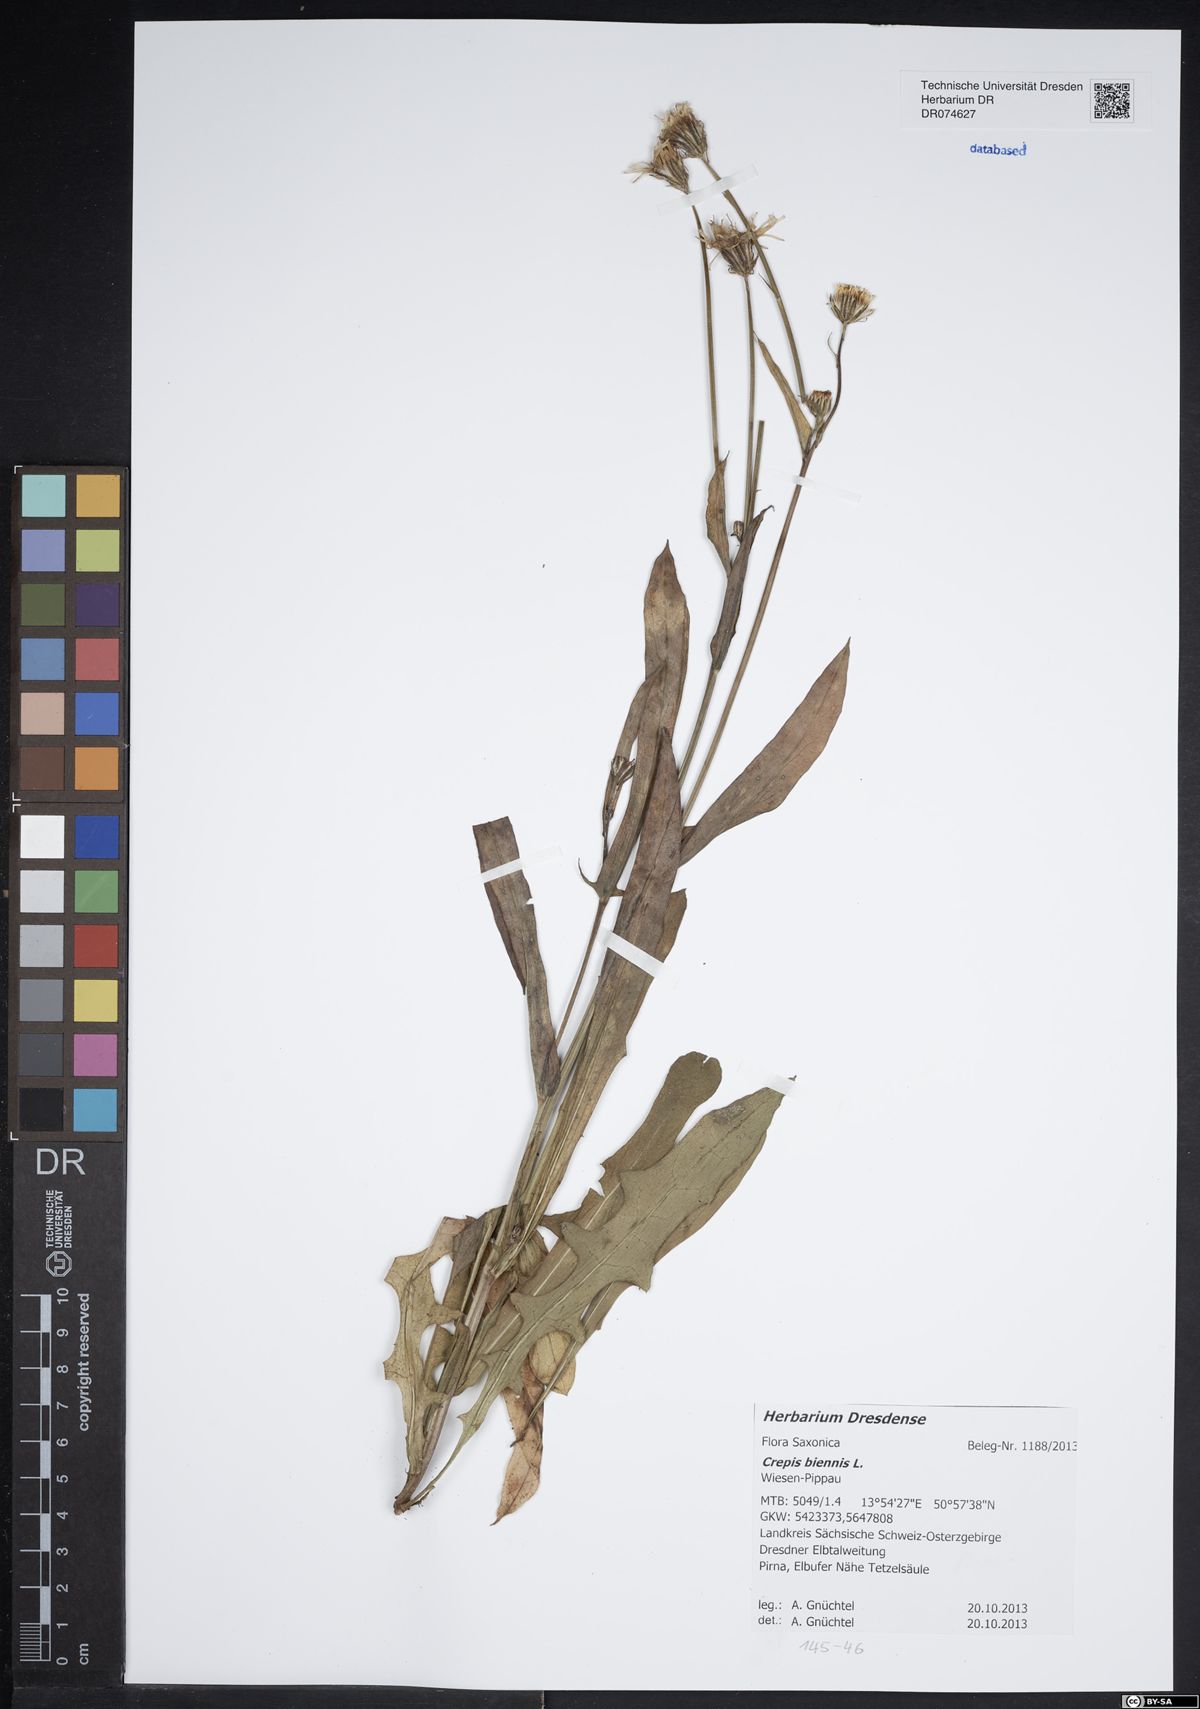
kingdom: Plantae
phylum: Tracheophyta
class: Magnoliopsida
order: Asterales
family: Asteraceae
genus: Crepis
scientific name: Crepis biennis
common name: Rough hawk's-beard
